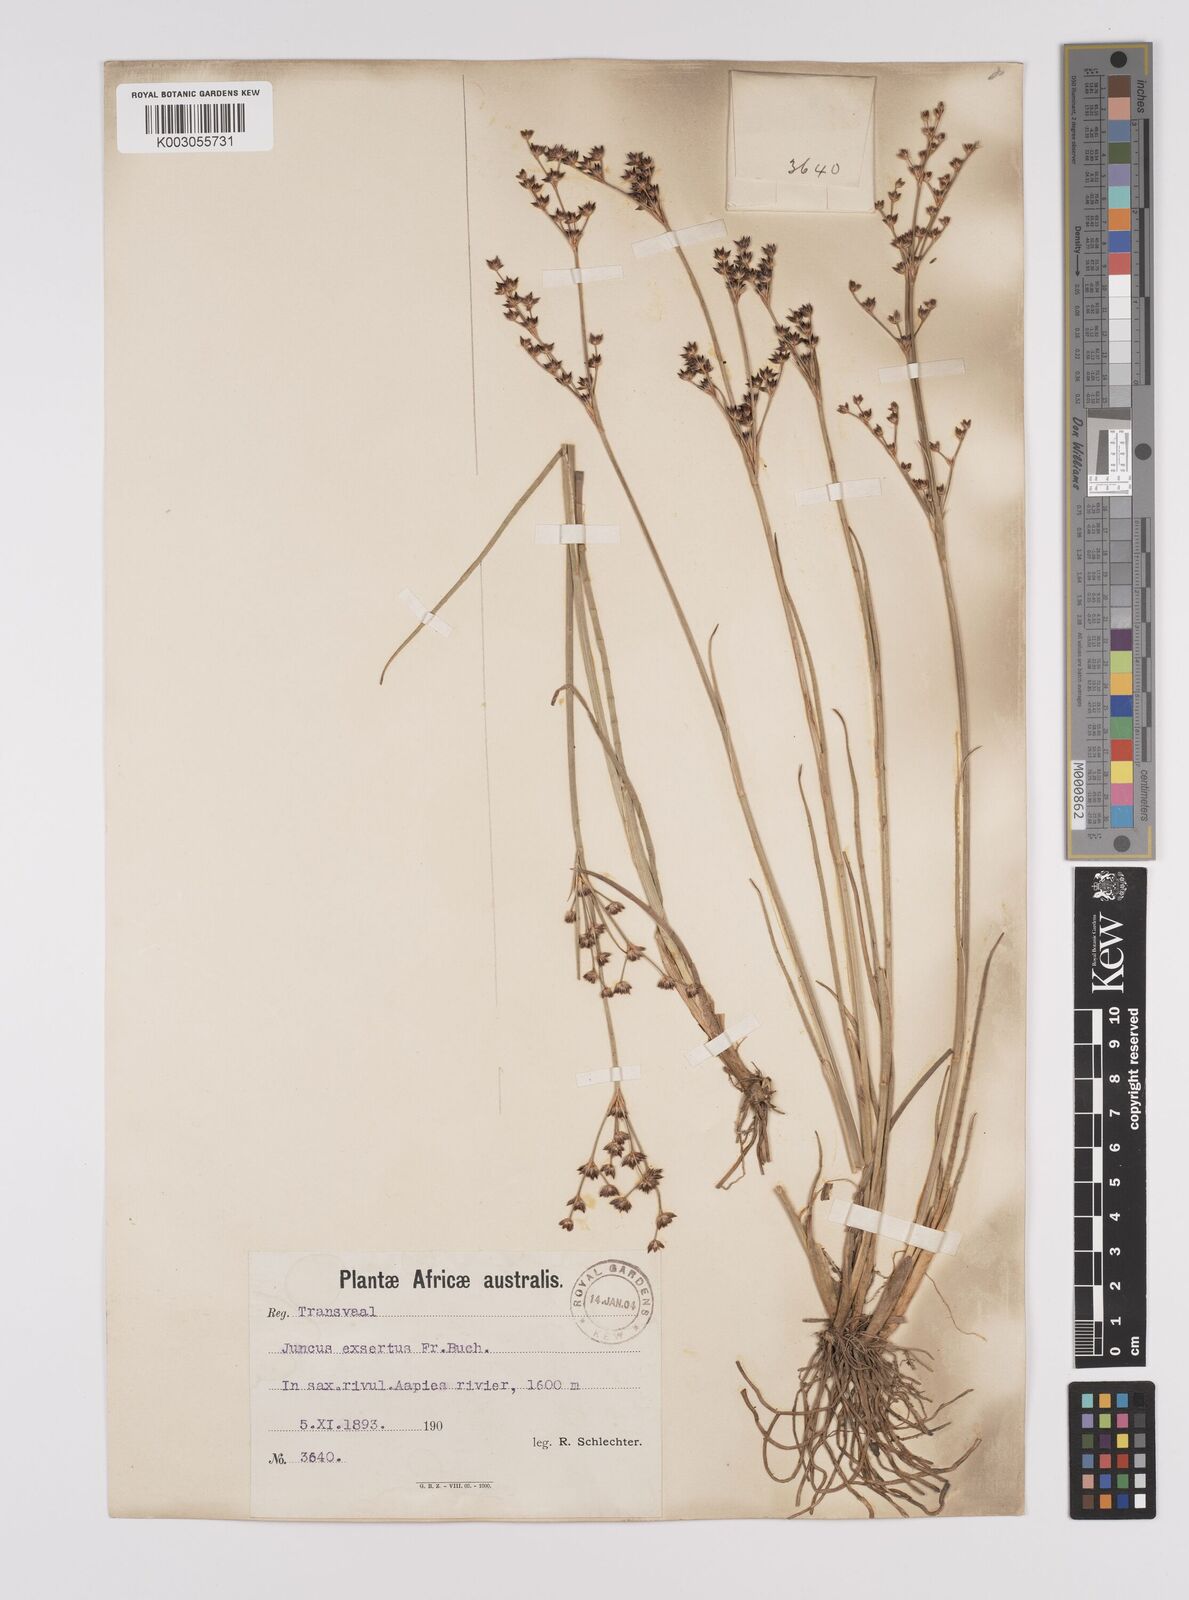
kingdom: Plantae
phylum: Tracheophyta
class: Liliopsida
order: Poales
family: Juncaceae
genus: Juncus
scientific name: Juncus exsertus
